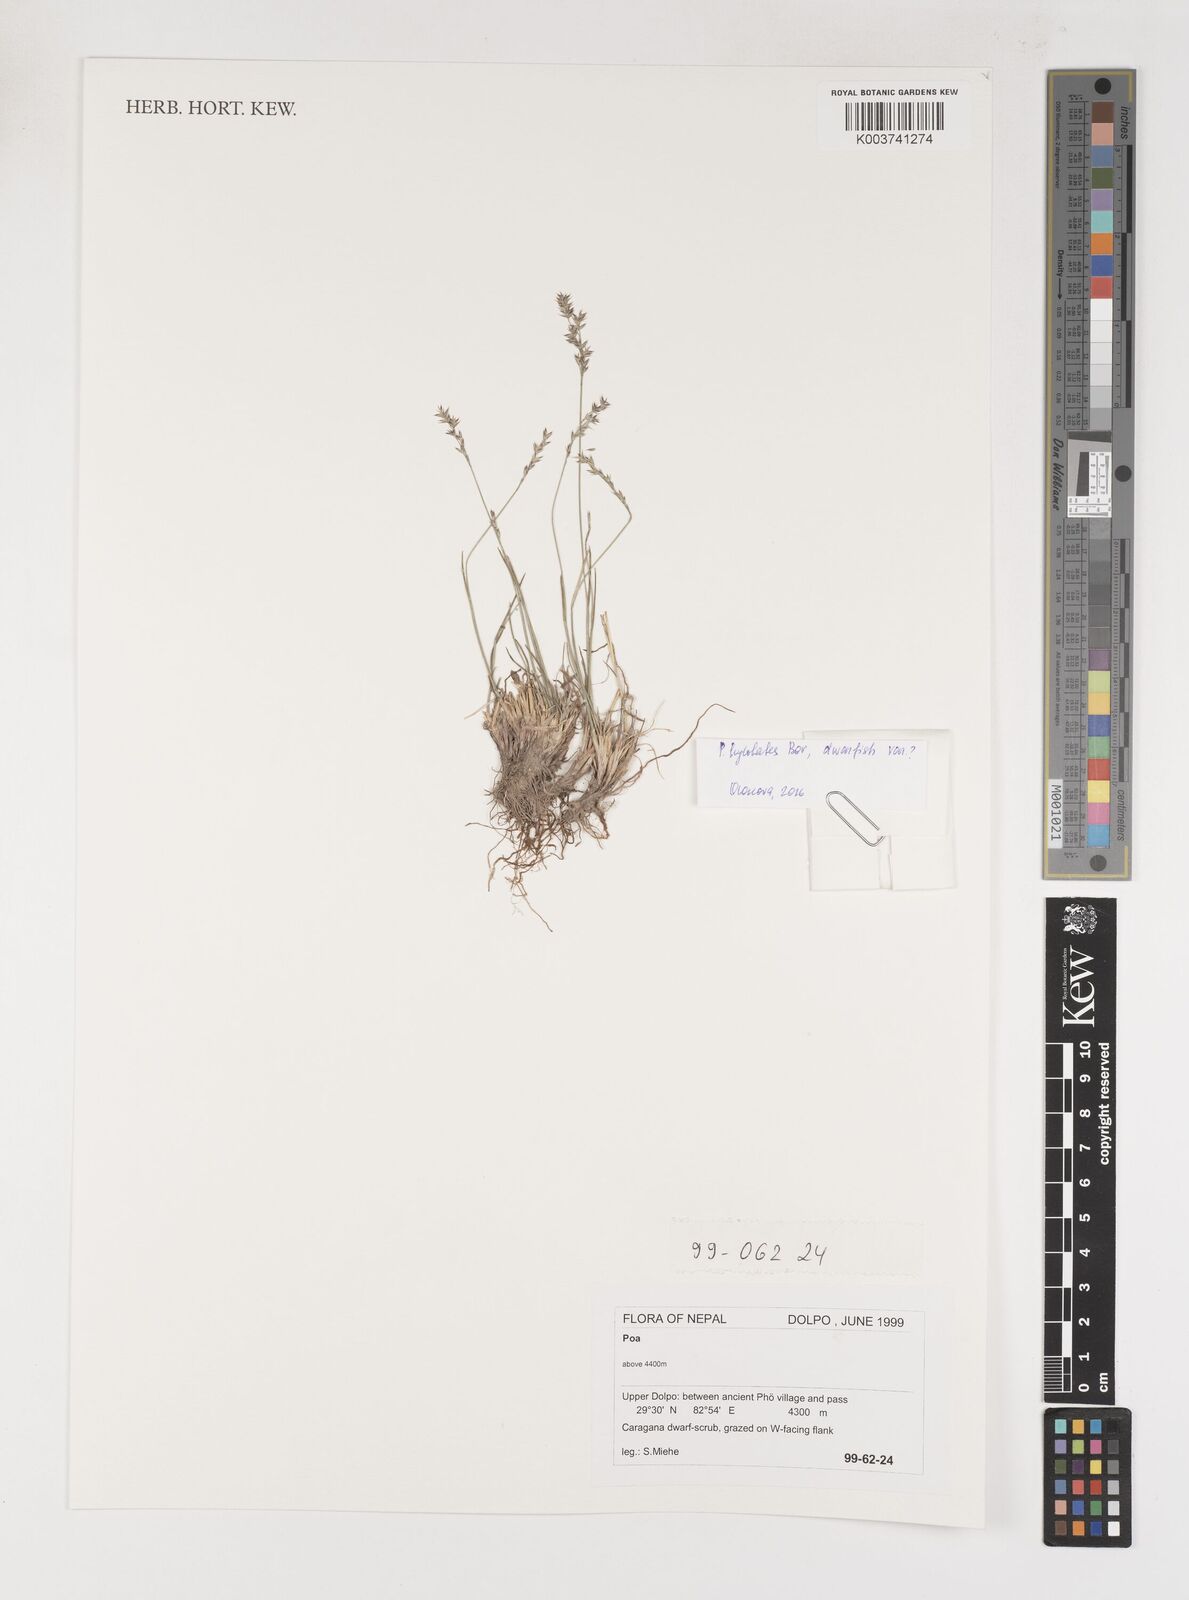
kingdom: Plantae
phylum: Tracheophyta
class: Liliopsida
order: Poales
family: Poaceae
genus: Poa
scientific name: Poa
